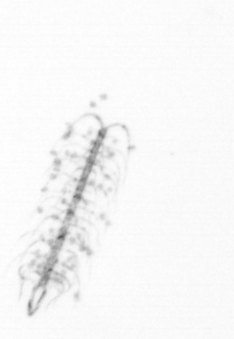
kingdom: Chromista
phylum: Ochrophyta
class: Bacillariophyceae
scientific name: Bacillariophyceae
